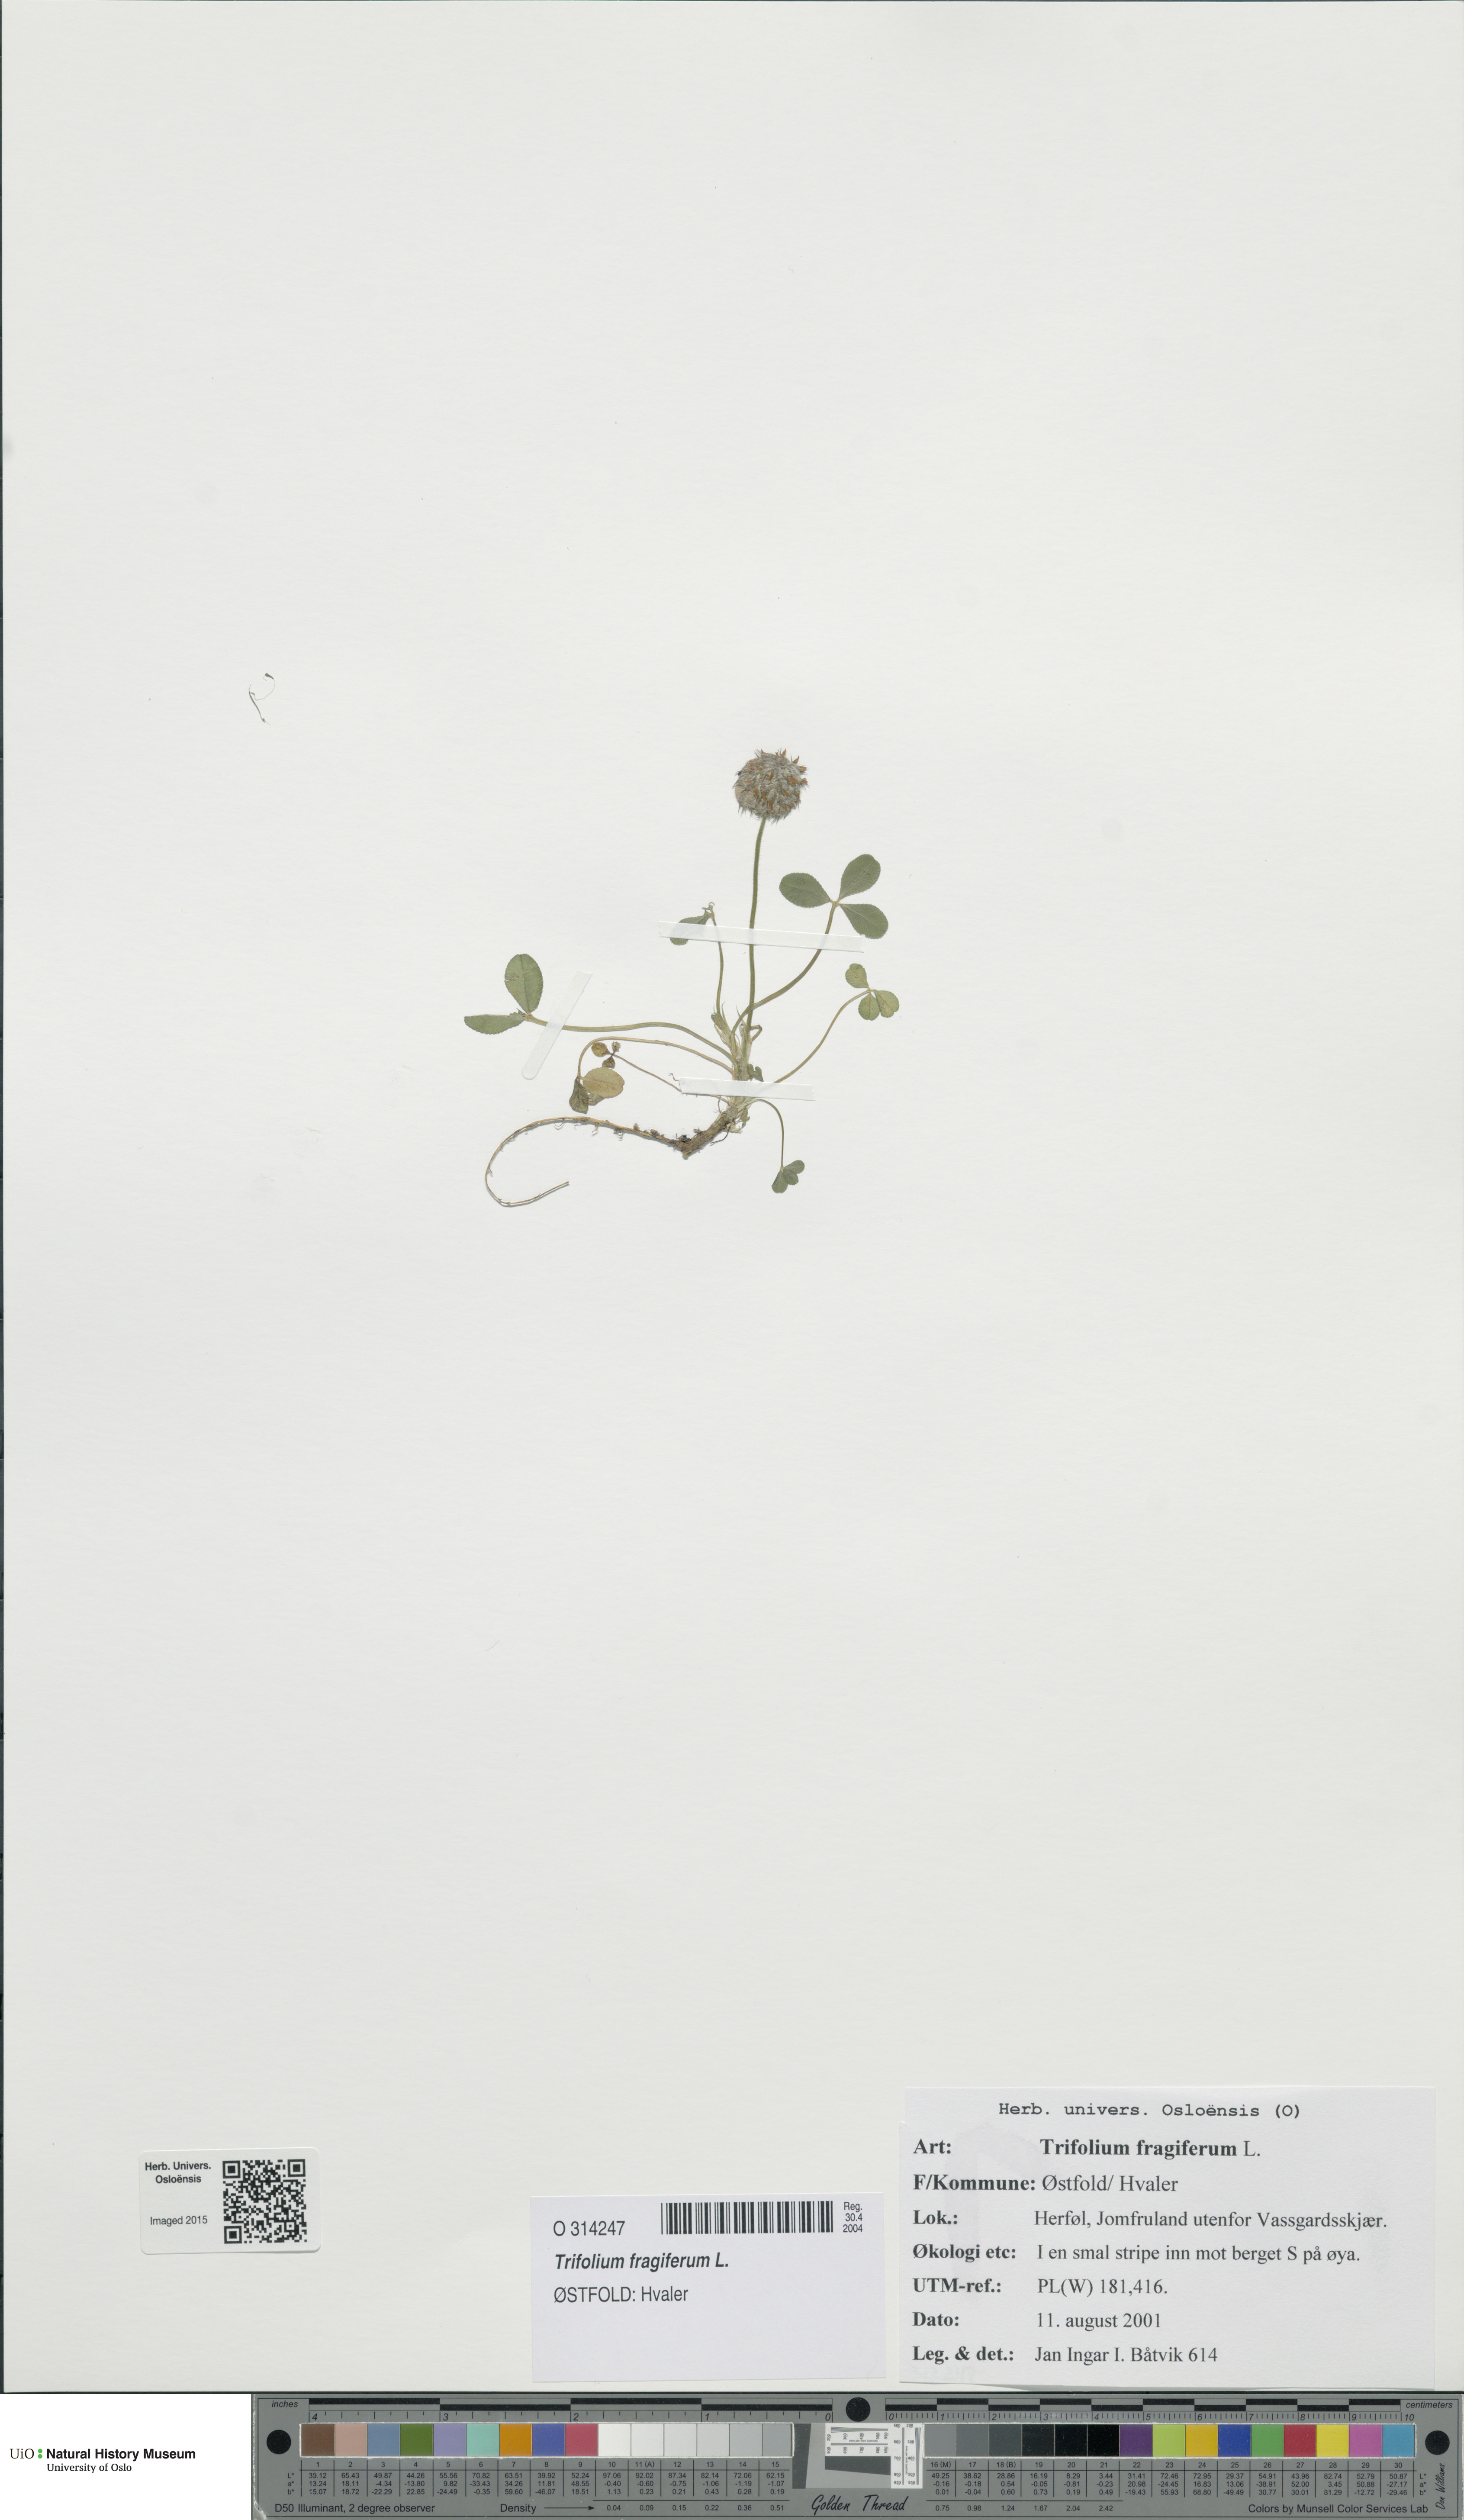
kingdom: Plantae
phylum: Tracheophyta
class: Magnoliopsida
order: Fabales
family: Fabaceae
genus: Trifolium
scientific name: Trifolium fragiferum
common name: Strawberry clover
